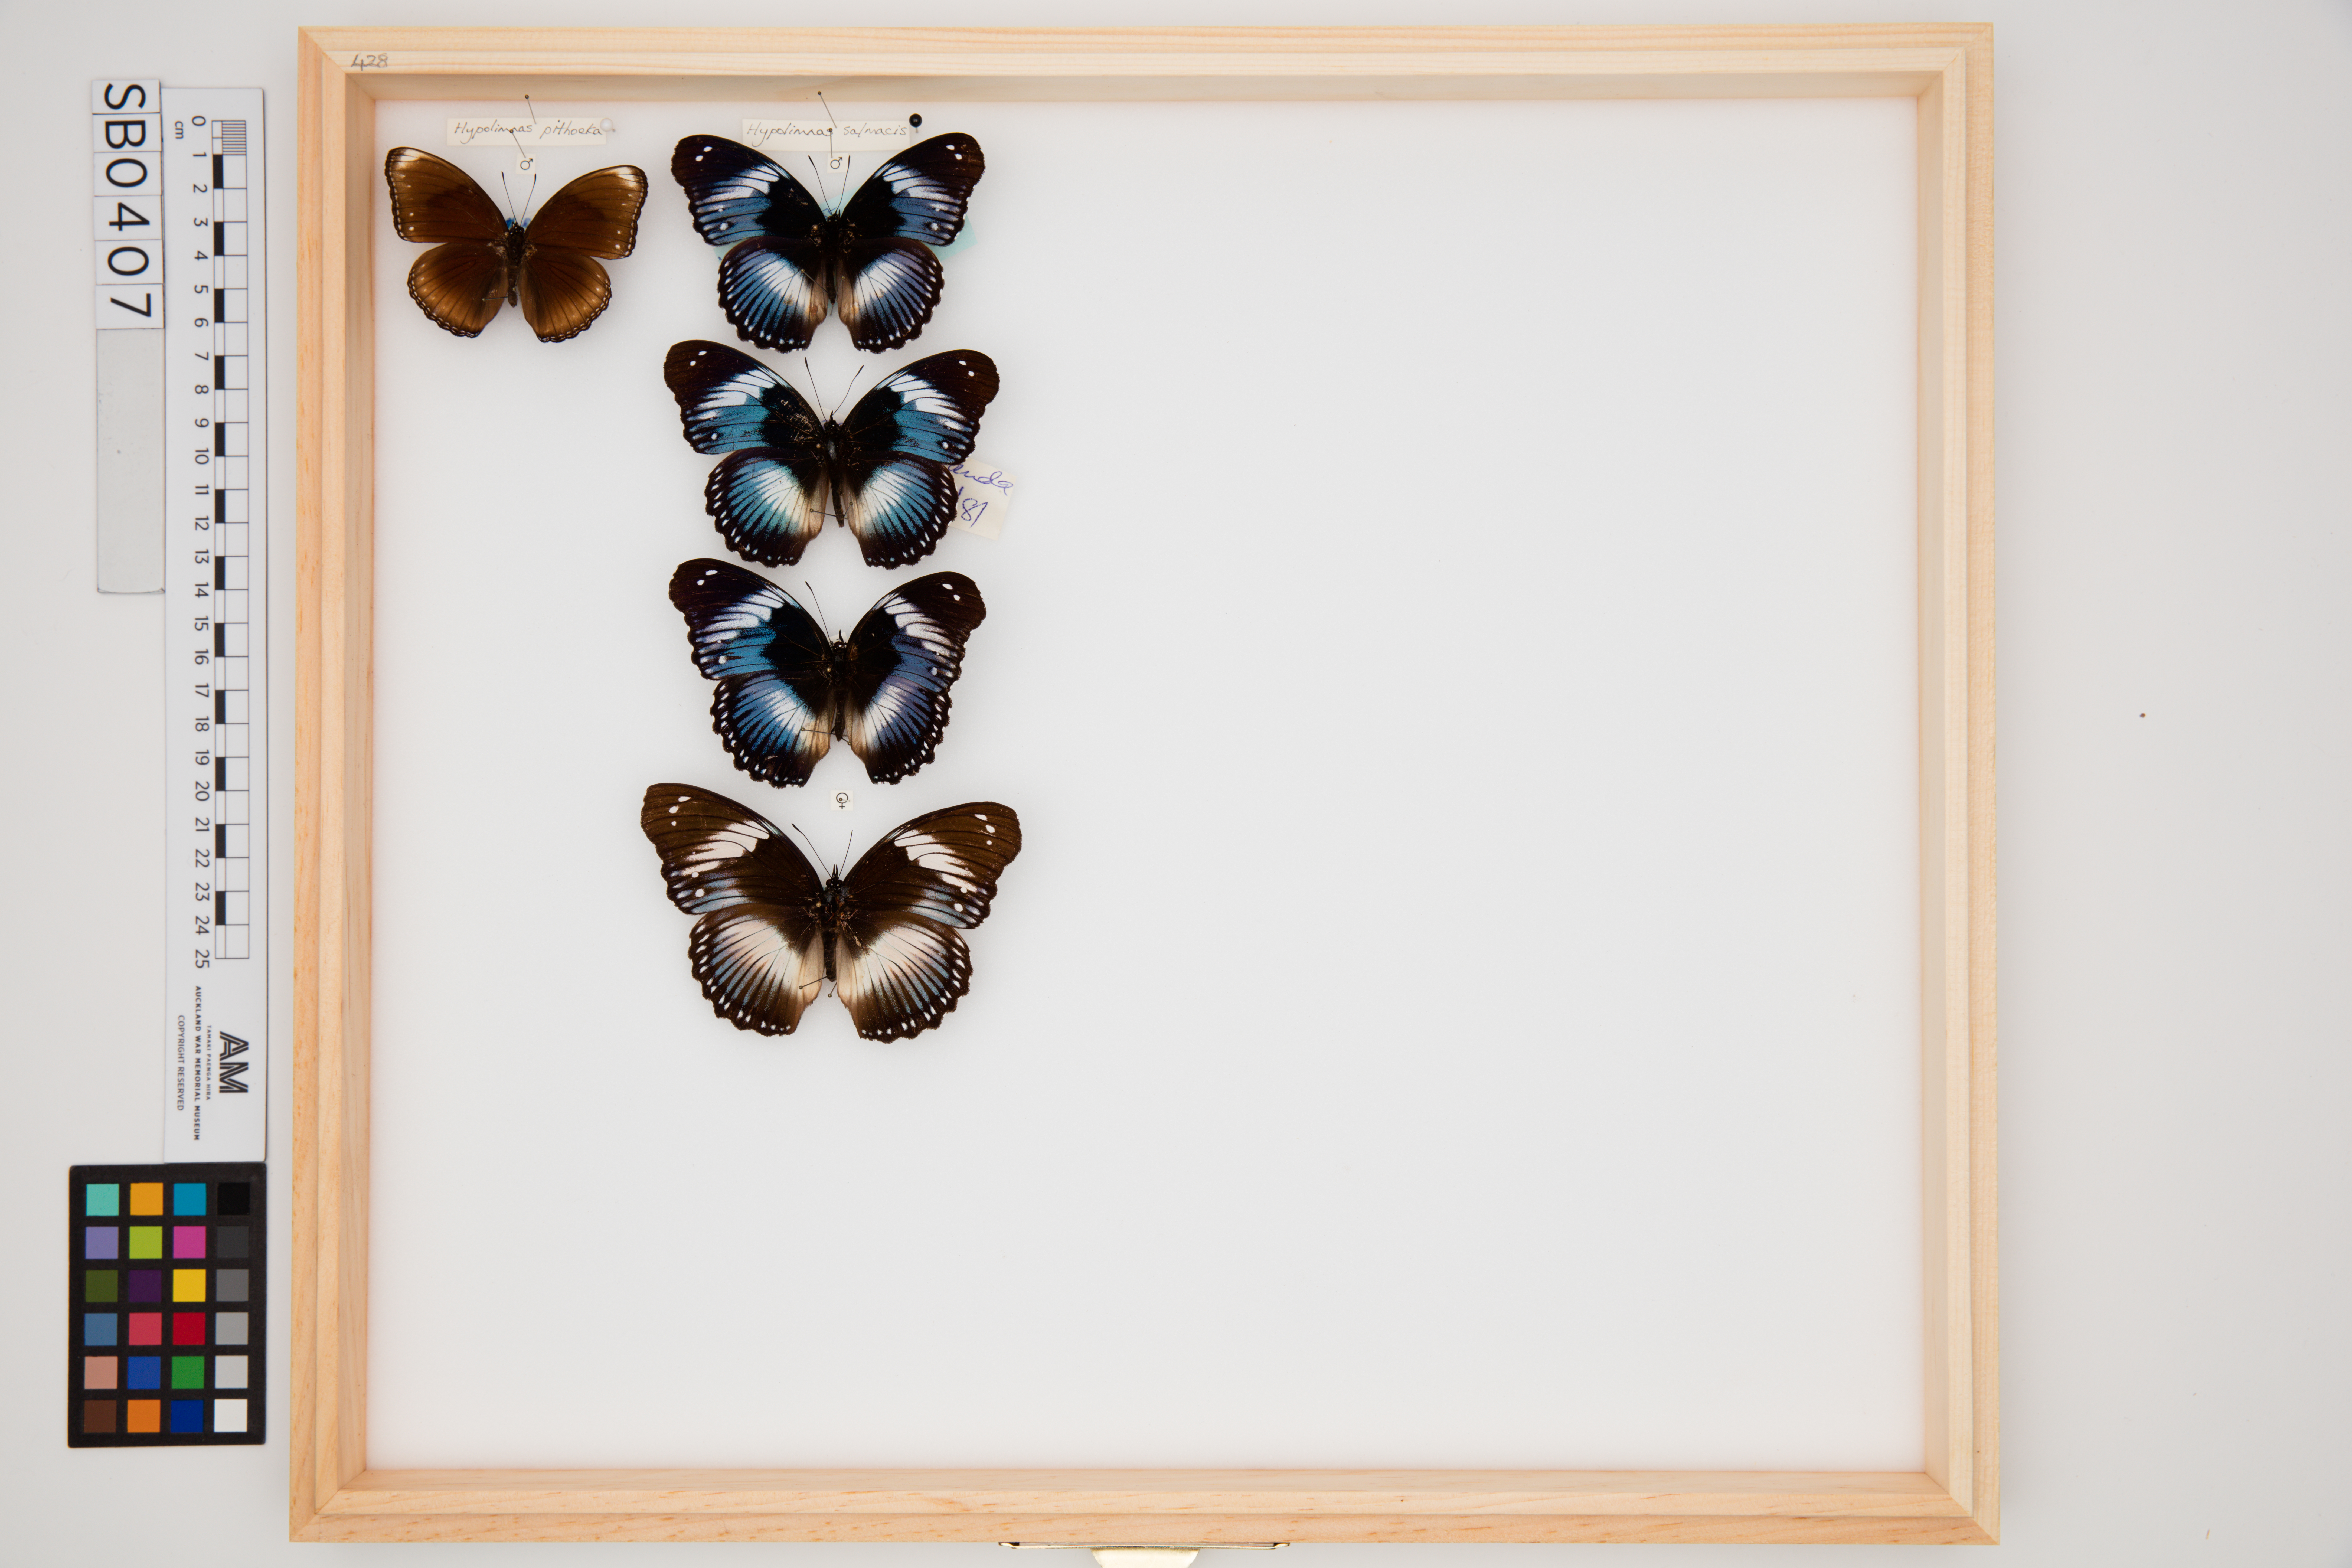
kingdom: Animalia
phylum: Arthropoda
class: Insecta
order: Lepidoptera
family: Nymphalidae
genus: Hypolimnas
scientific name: Hypolimnas salmacis
